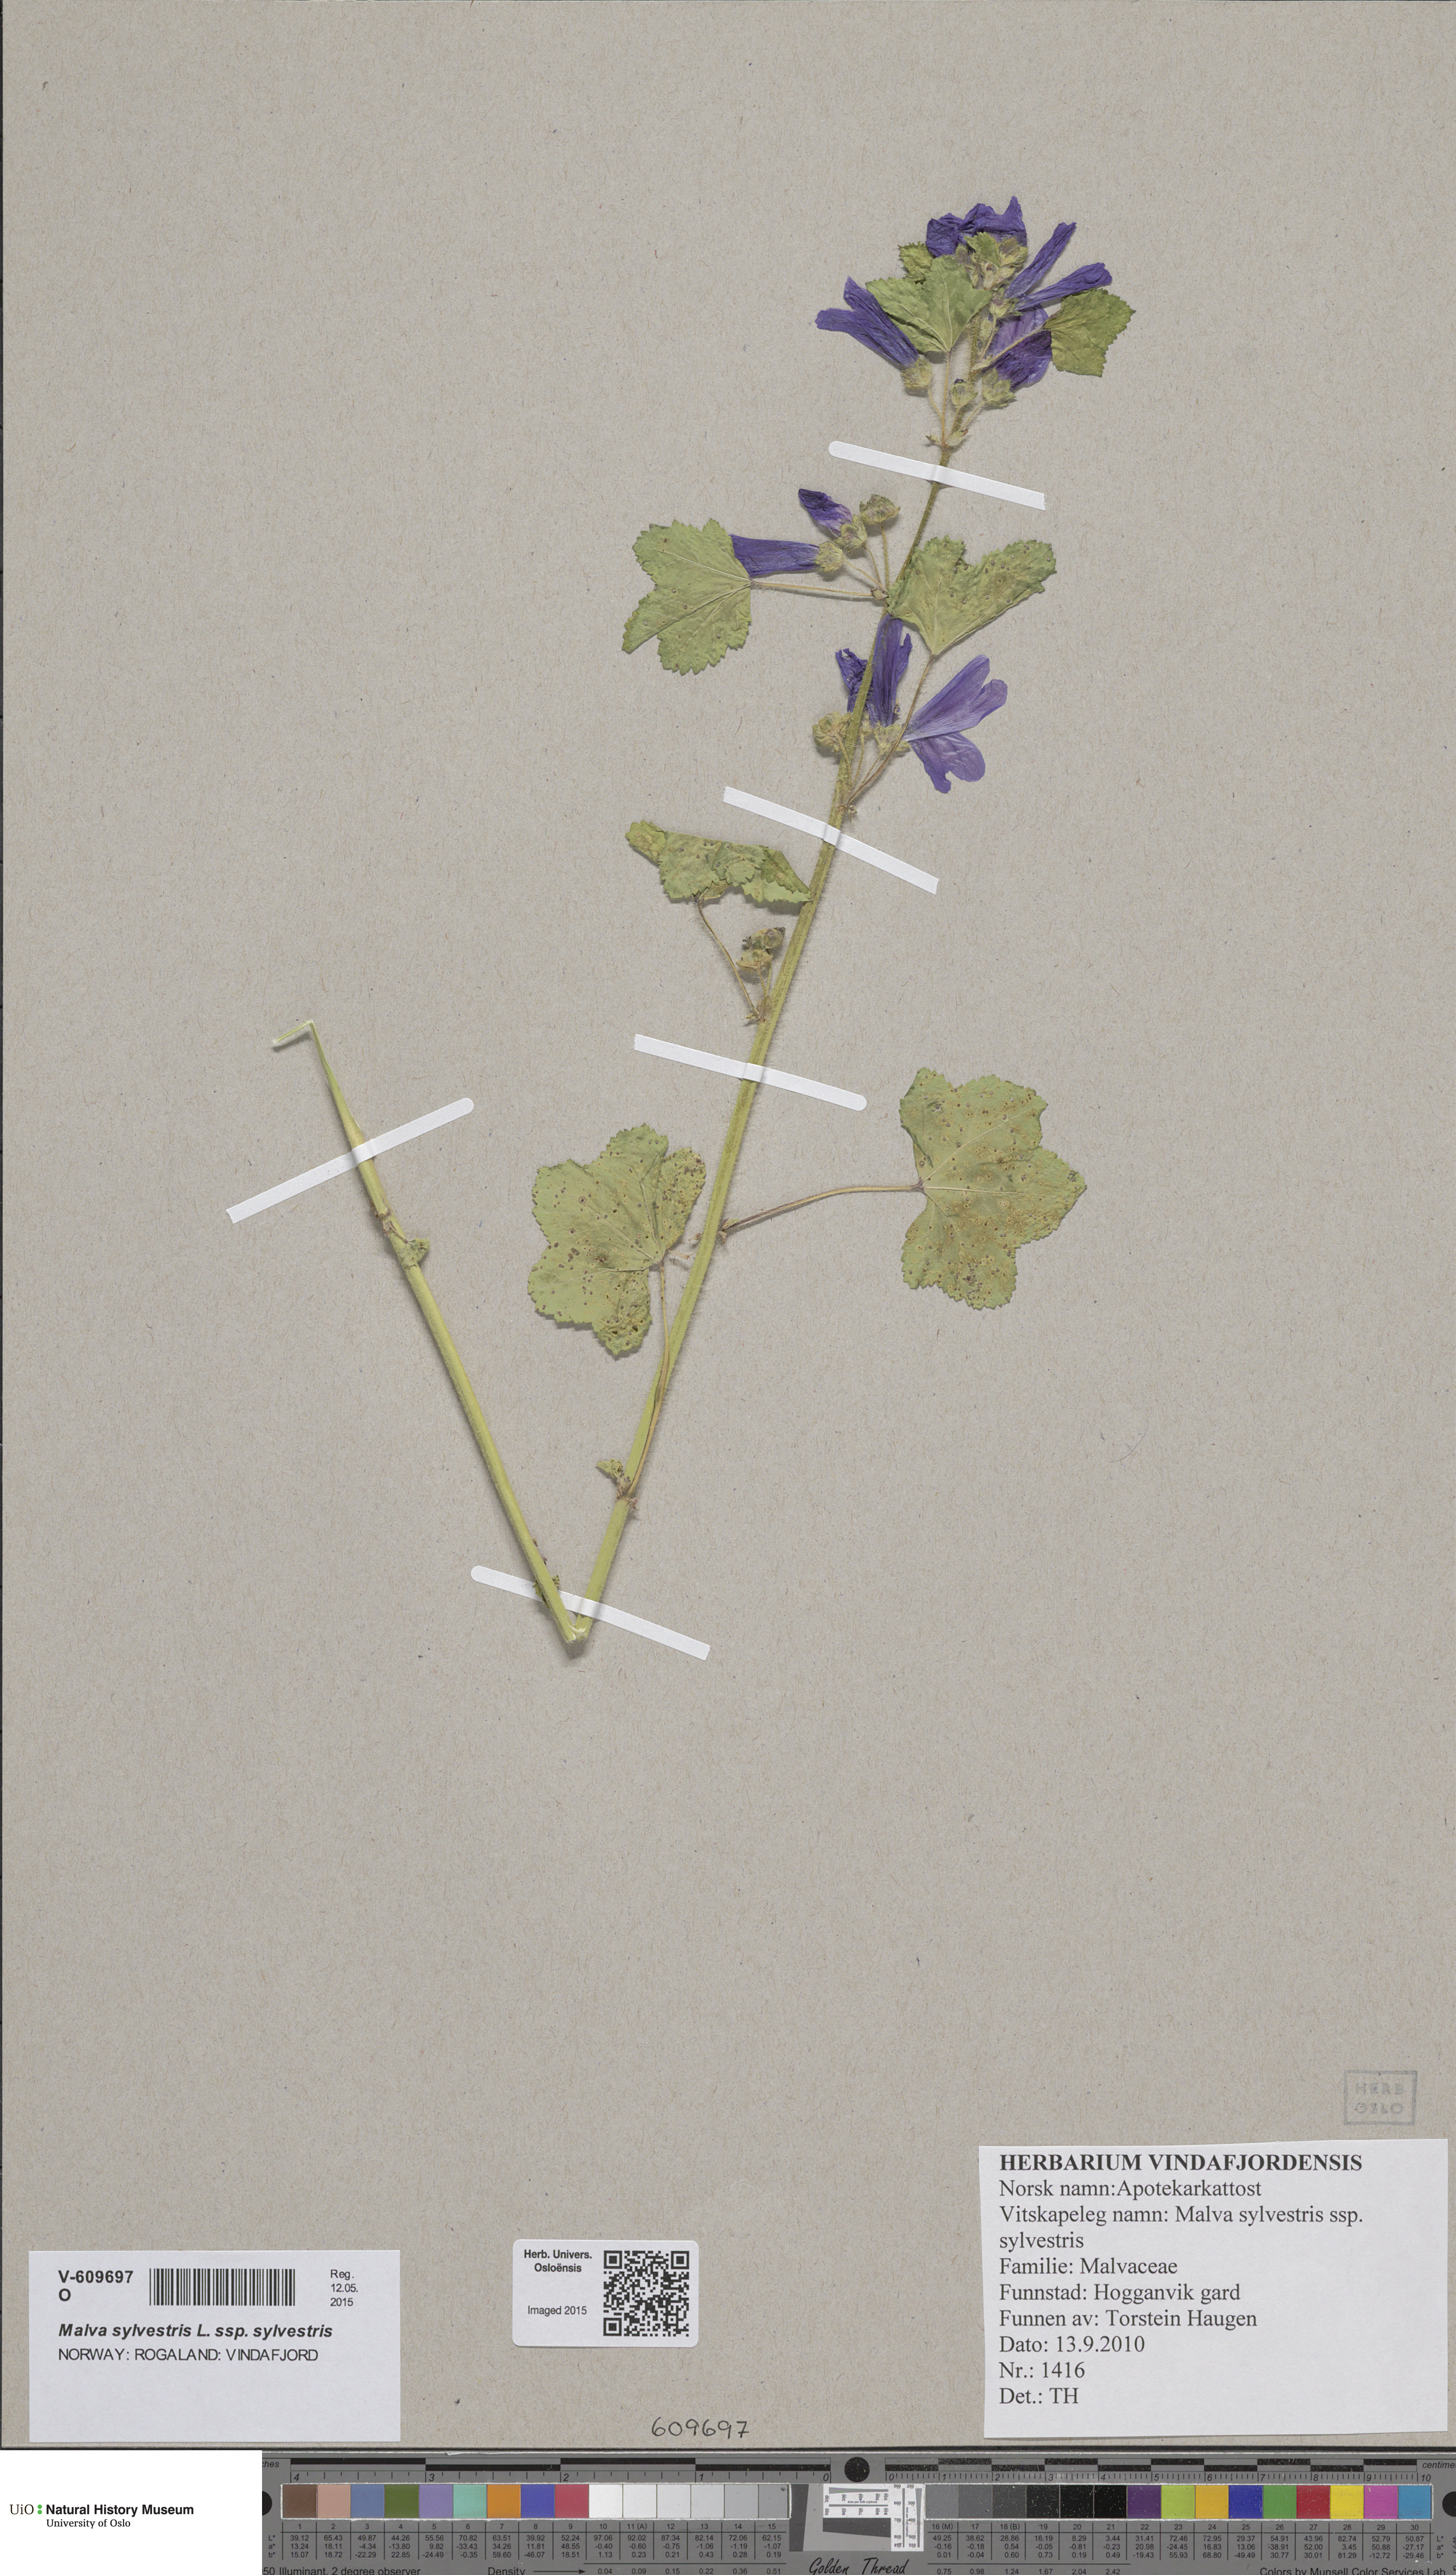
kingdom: Plantae
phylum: Tracheophyta
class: Magnoliopsida
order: Malvales
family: Malvaceae
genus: Malva
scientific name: Malva sylvestris
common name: Common mallow
